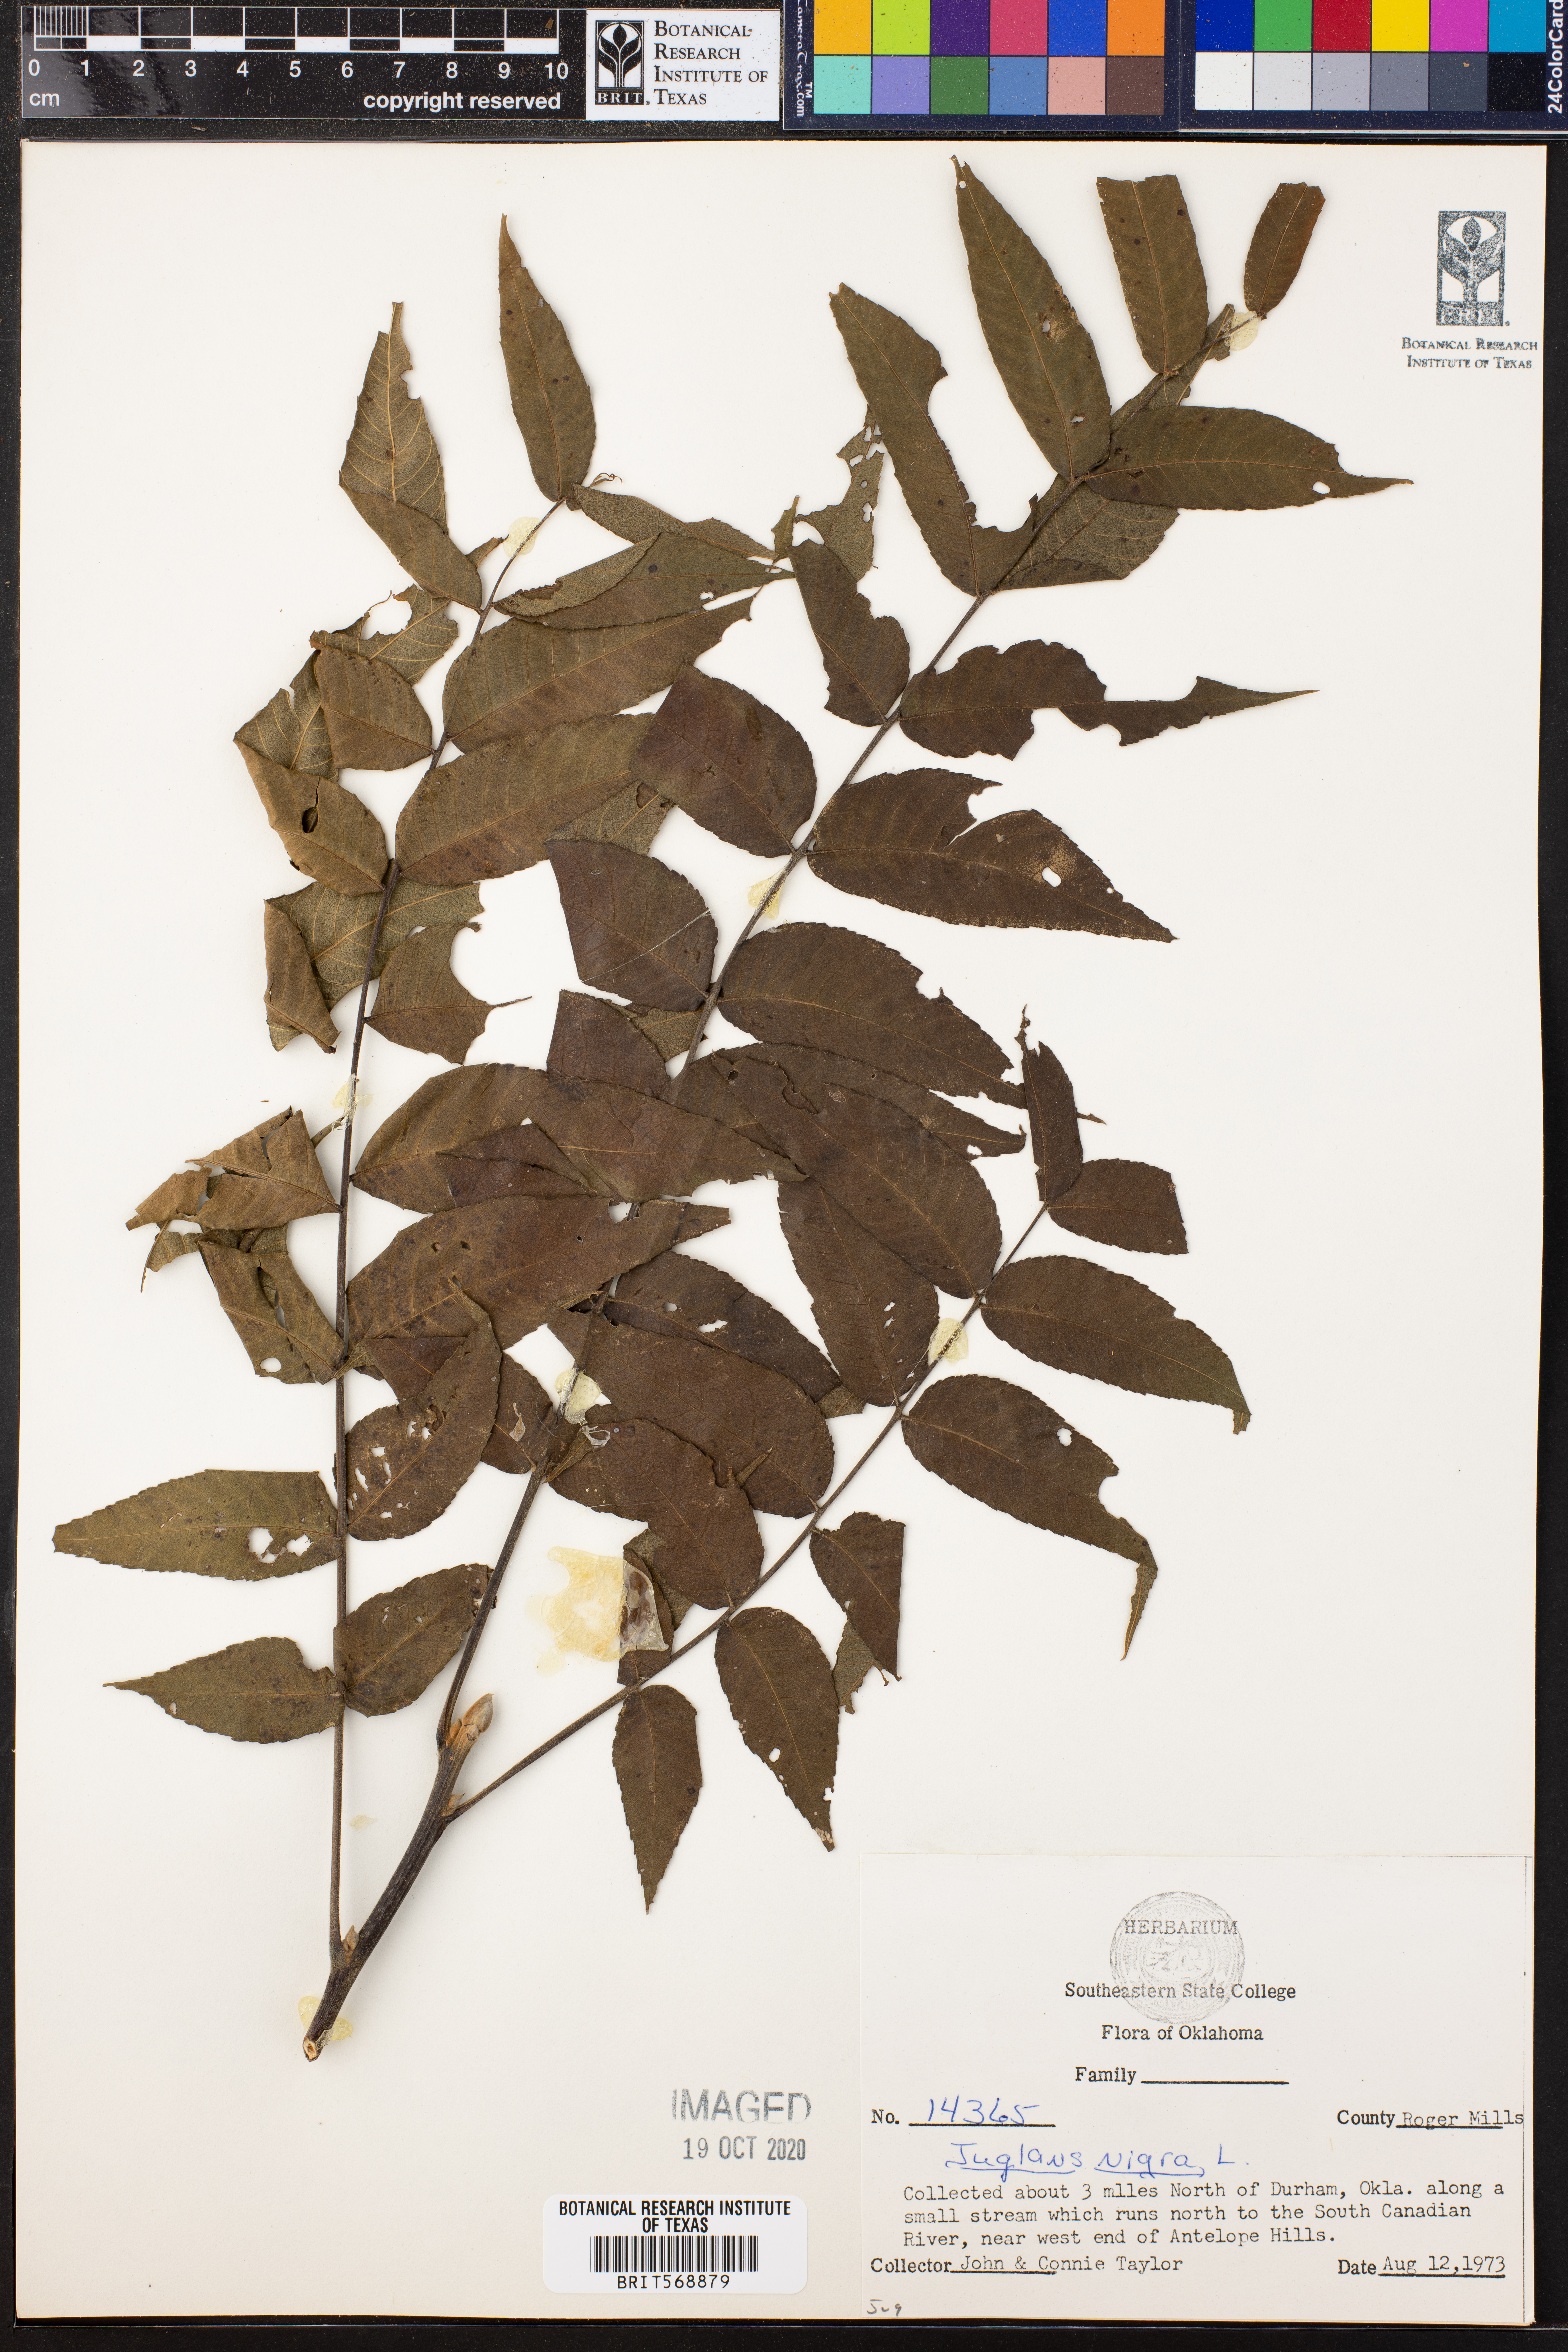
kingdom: Plantae
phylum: Tracheophyta
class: Magnoliopsida
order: Fagales
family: Juglandaceae
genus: Juglans
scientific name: Juglans nigra
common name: Black walnut
